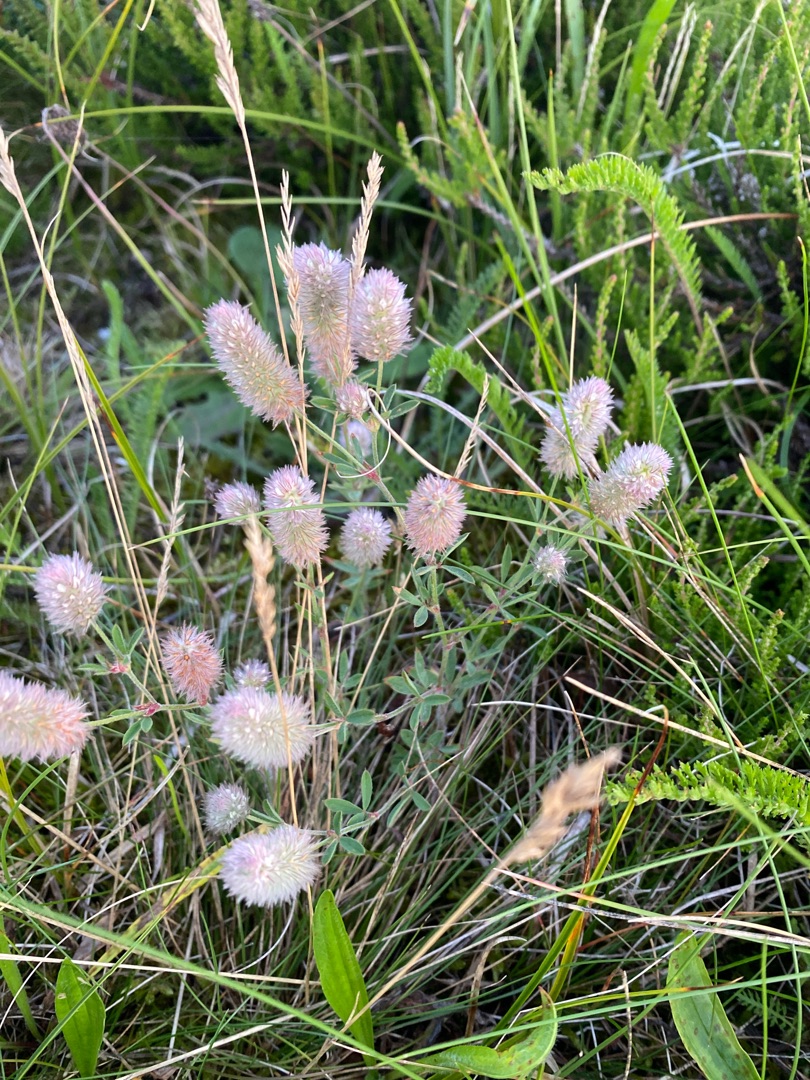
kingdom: Plantae
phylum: Tracheophyta
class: Magnoliopsida
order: Fabales
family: Fabaceae
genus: Trifolium
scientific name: Trifolium arvense
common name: Hare-kløver
